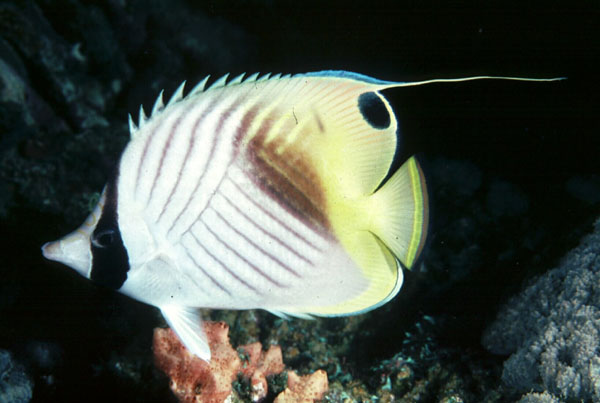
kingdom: Animalia
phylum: Chordata
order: Perciformes
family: Chaetodontidae
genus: Chaetodon
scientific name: Chaetodon auriga
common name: Threadfin butterflyfish
